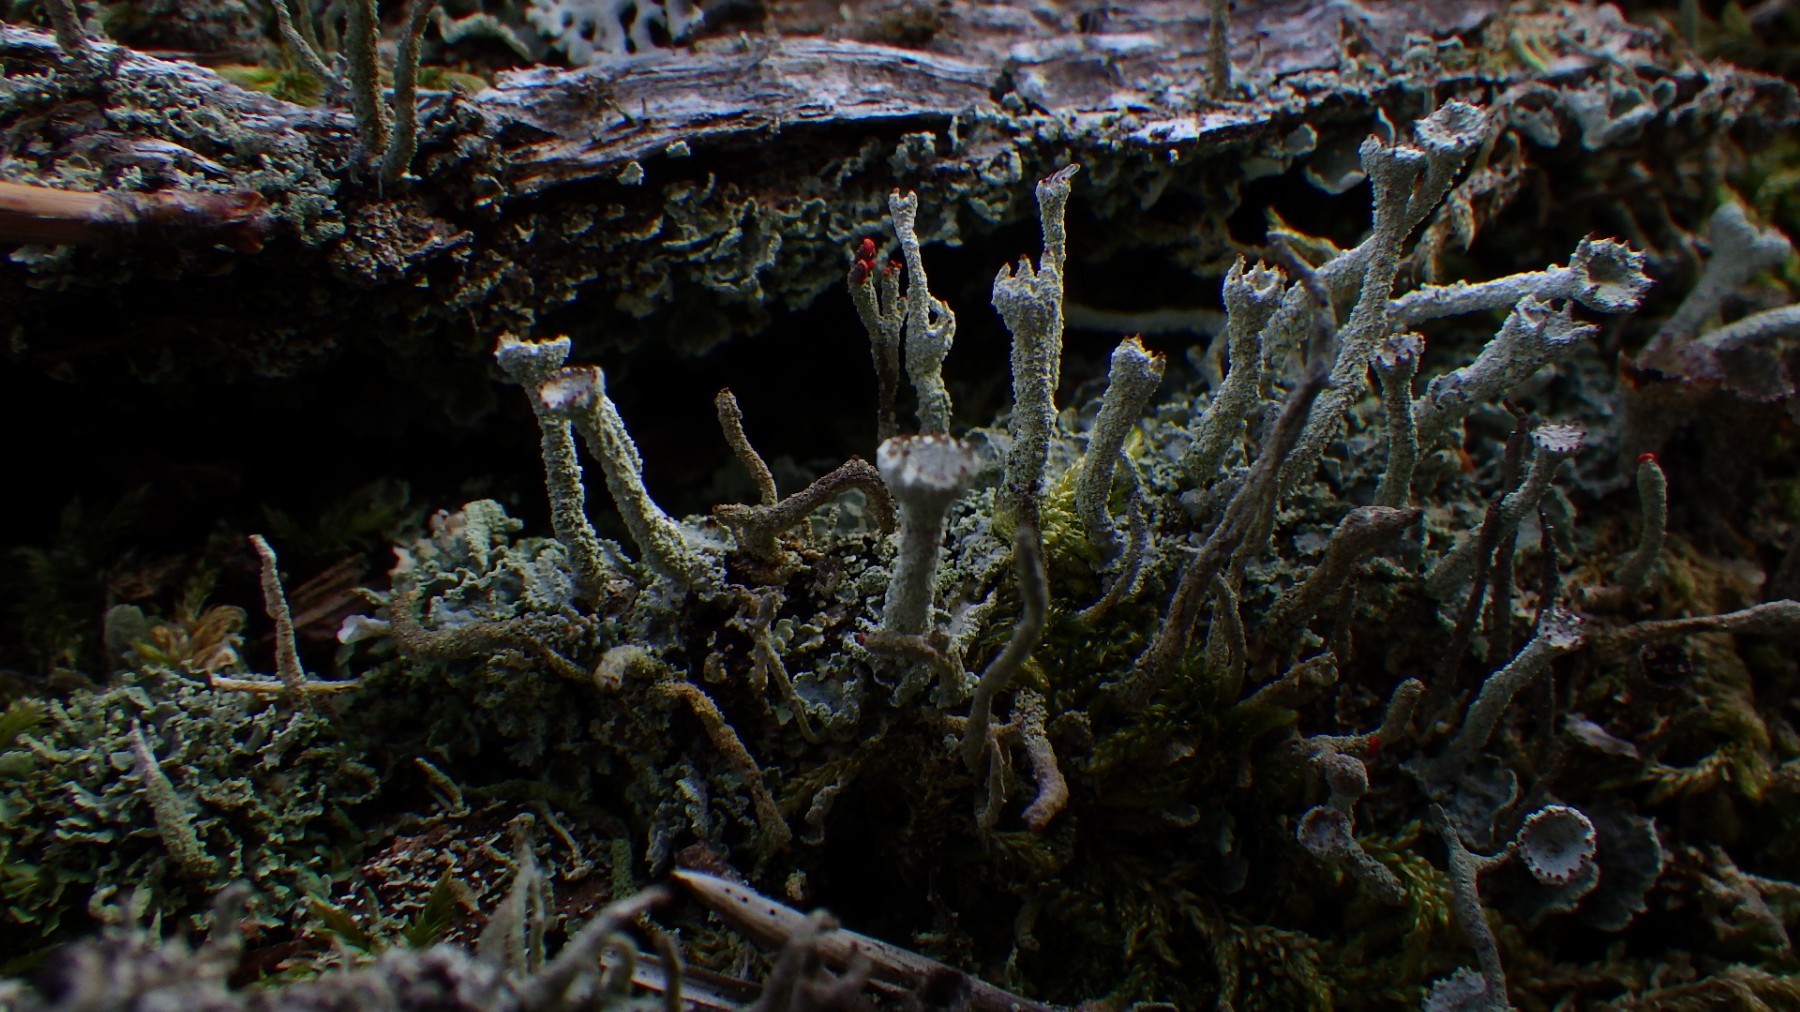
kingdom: Fungi
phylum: Ascomycota
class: Lecanoromycetes
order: Lecanorales
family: Cladoniaceae
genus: Cladonia
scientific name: Cladonia digitata
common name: finger-bægerlav
